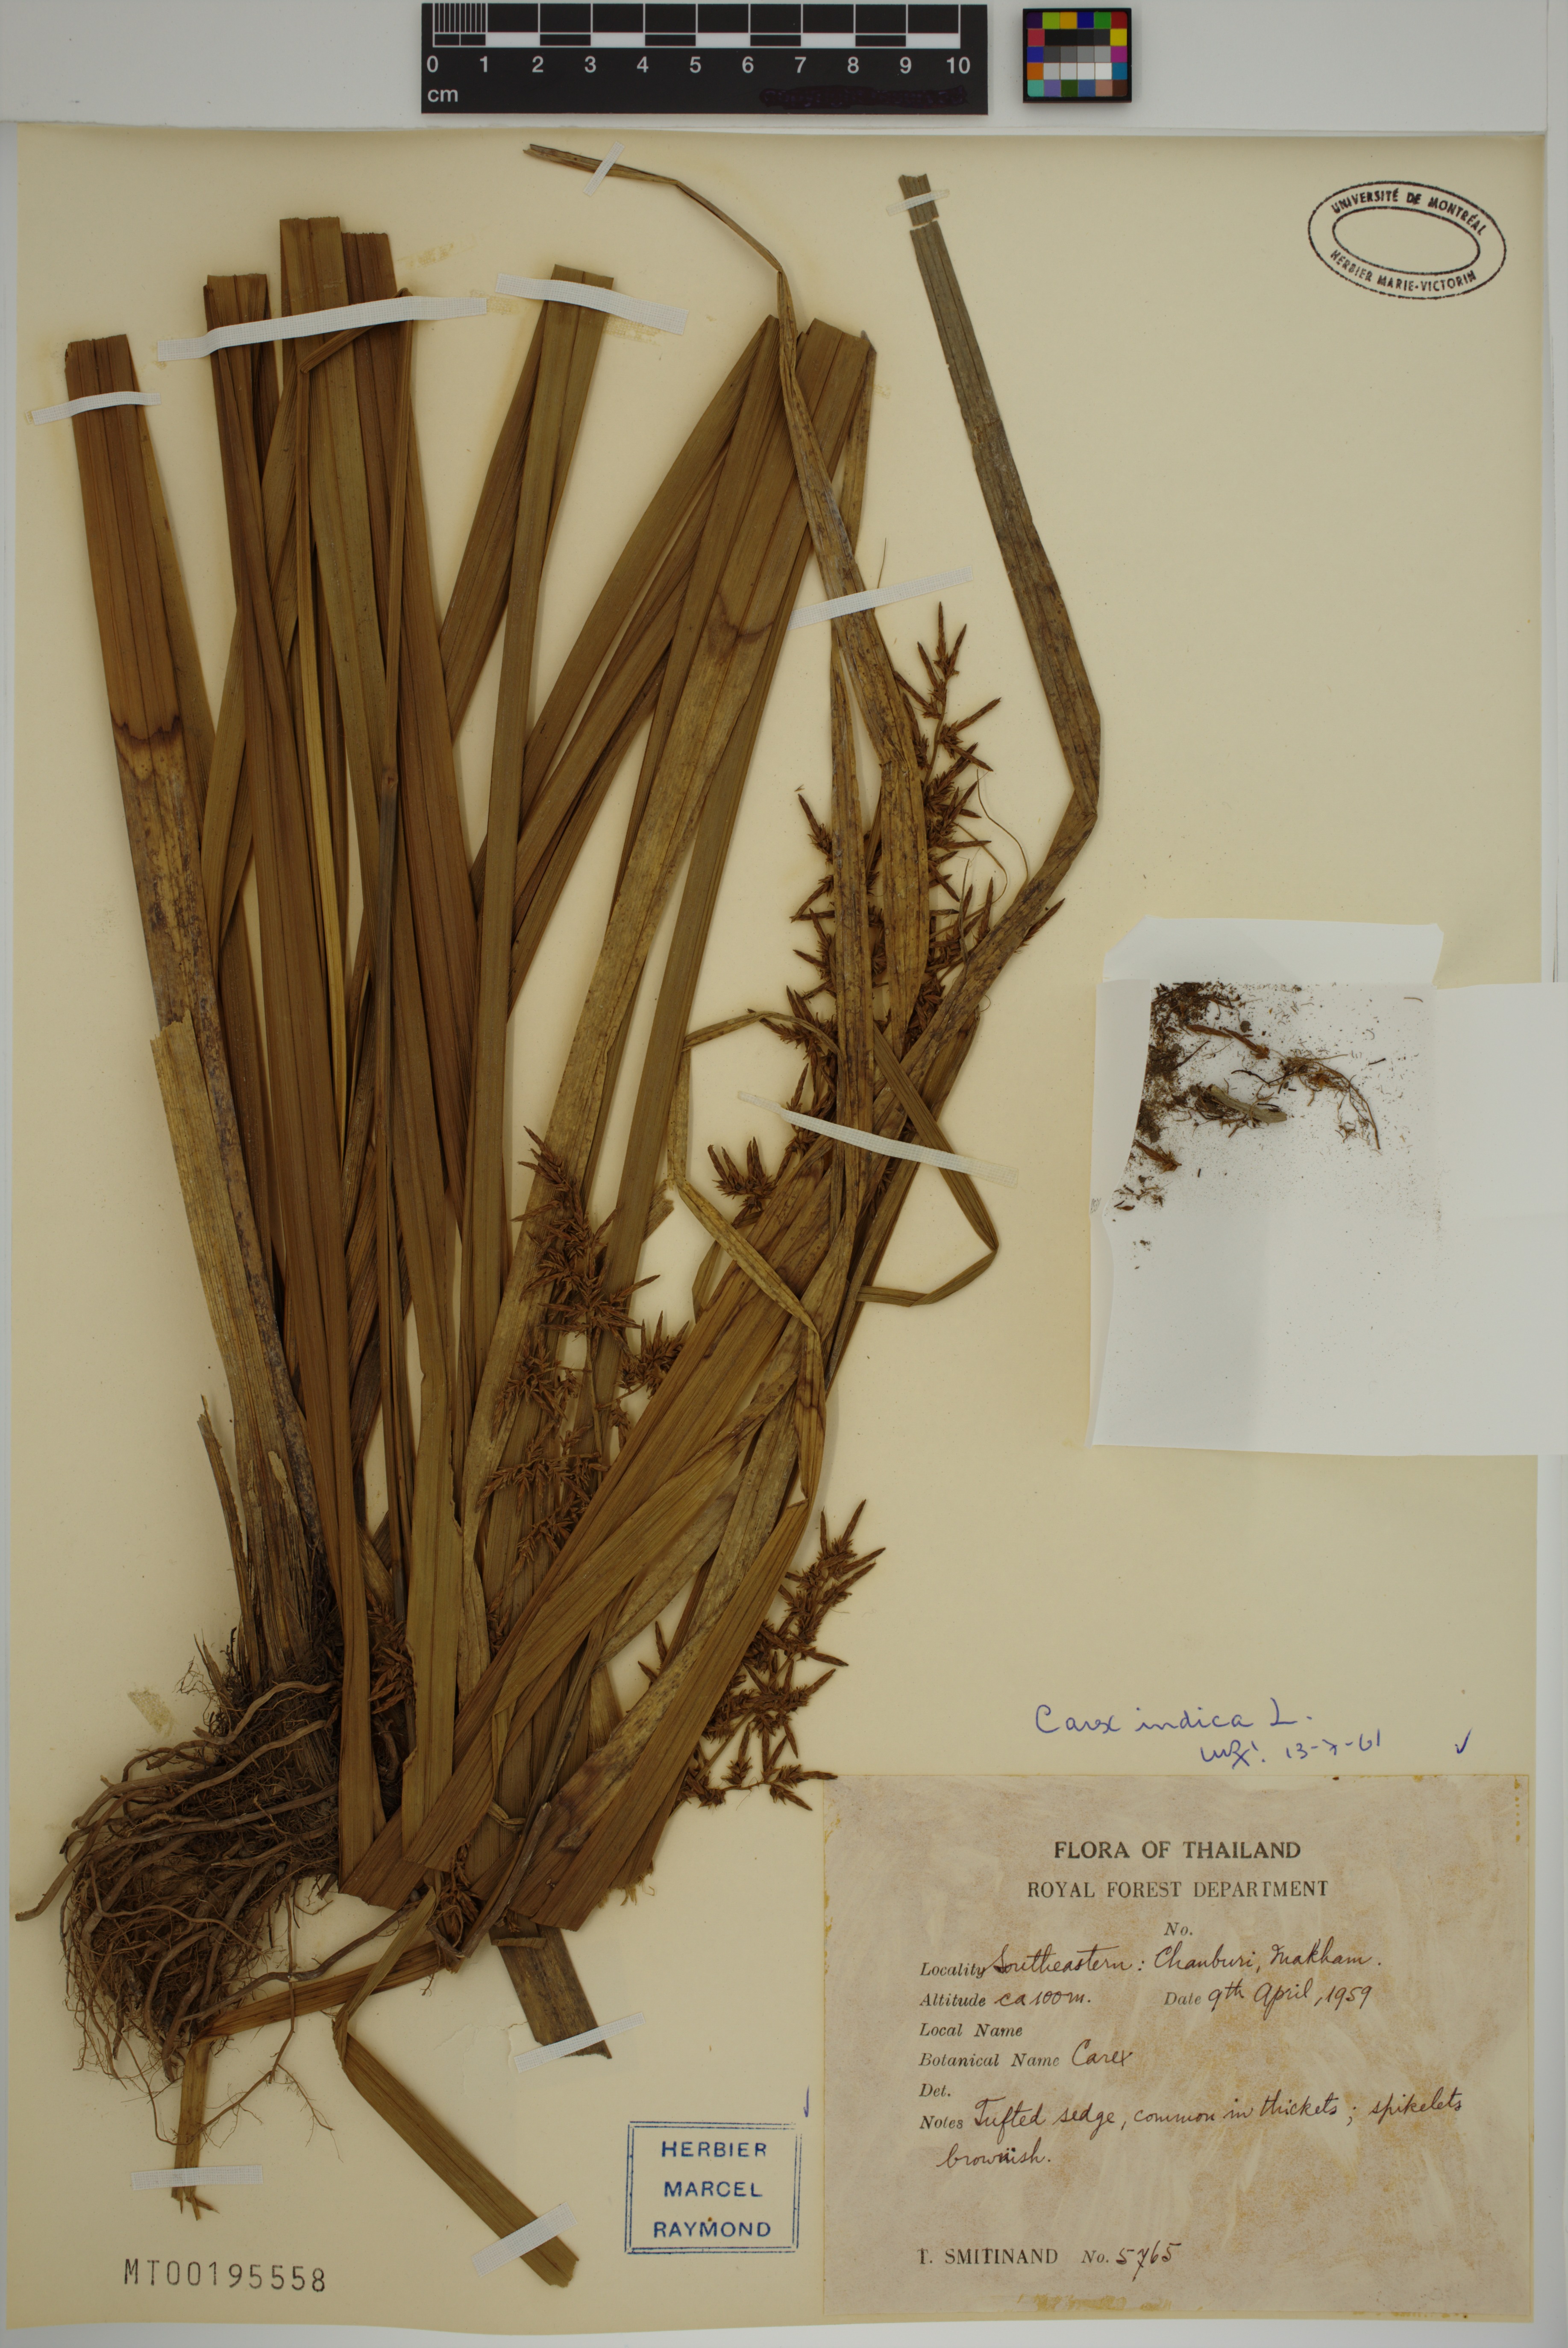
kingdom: Plantae
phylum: Tracheophyta
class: Liliopsida
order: Poales
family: Cyperaceae
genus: Carex
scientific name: Carex indica
